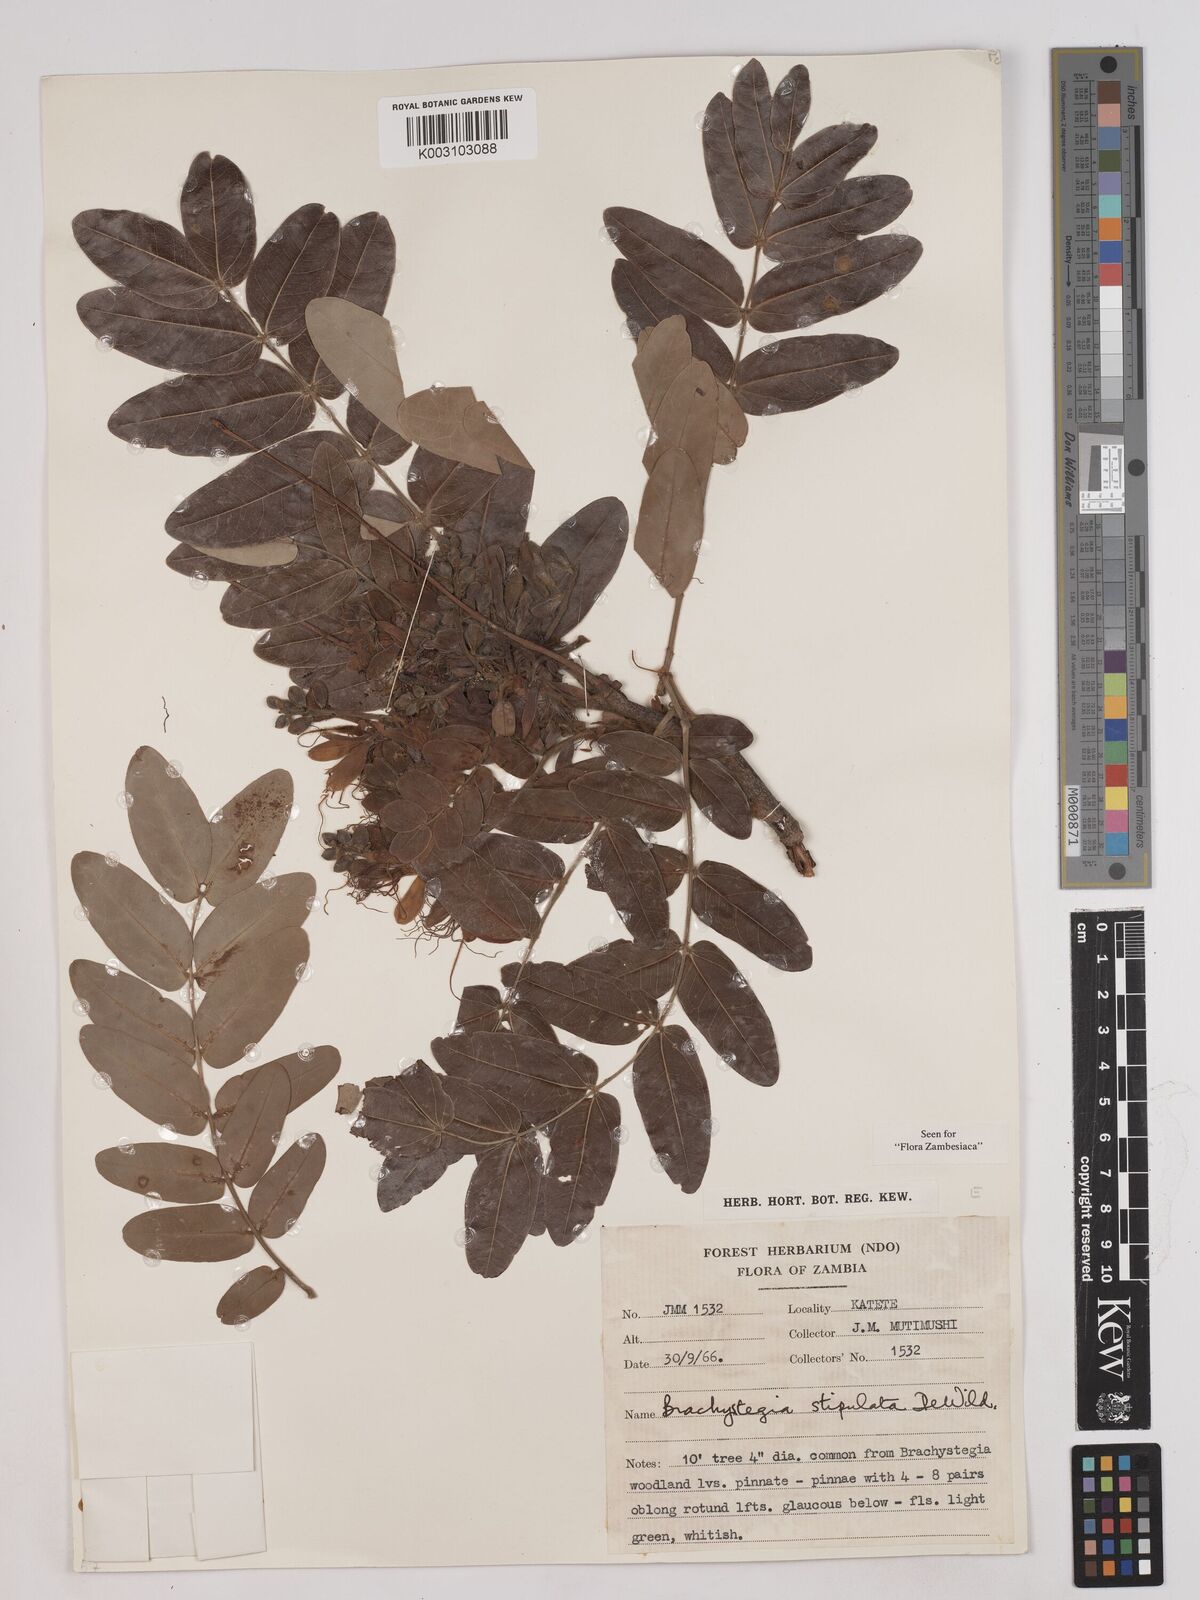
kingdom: Plantae
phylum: Tracheophyta
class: Magnoliopsida
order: Fabales
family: Fabaceae
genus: Brachystegia
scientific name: Brachystegia stipulata
